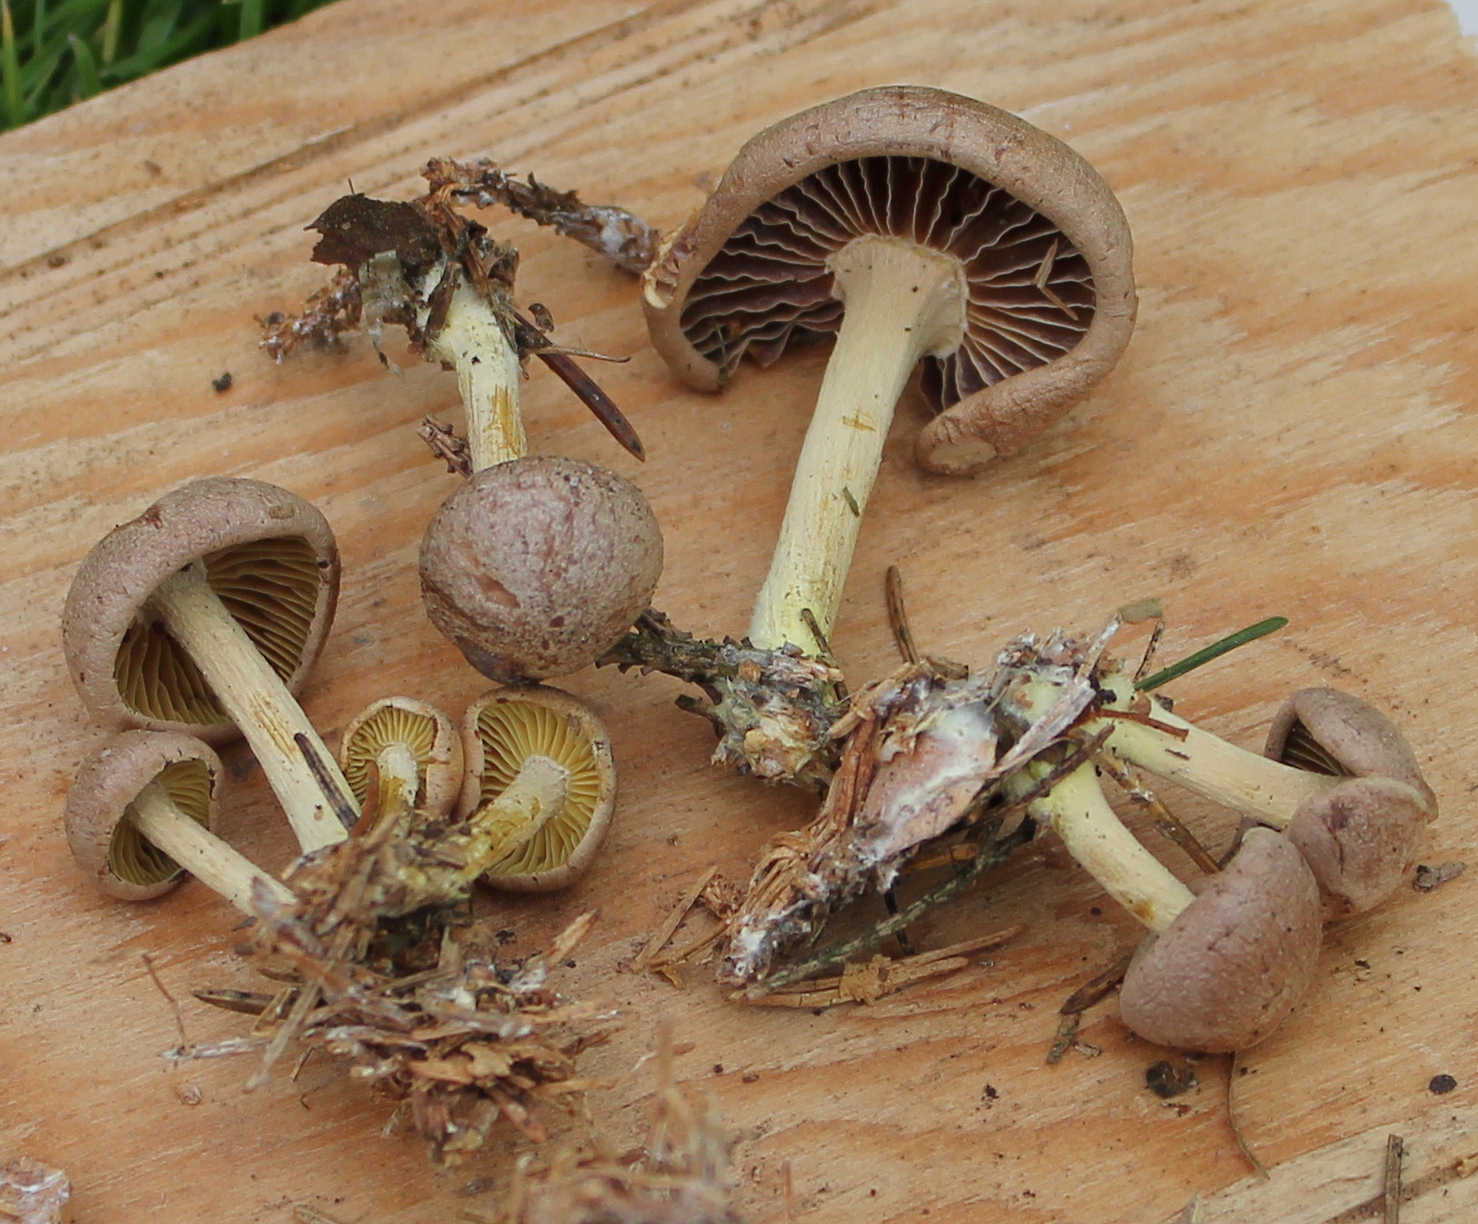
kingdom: Fungi
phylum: Basidiomycota
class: Agaricomycetes
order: Agaricales
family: Omphalotaceae
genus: Collybiopsis
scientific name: Collybiopsis peronata
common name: bestøvlet fladhat
